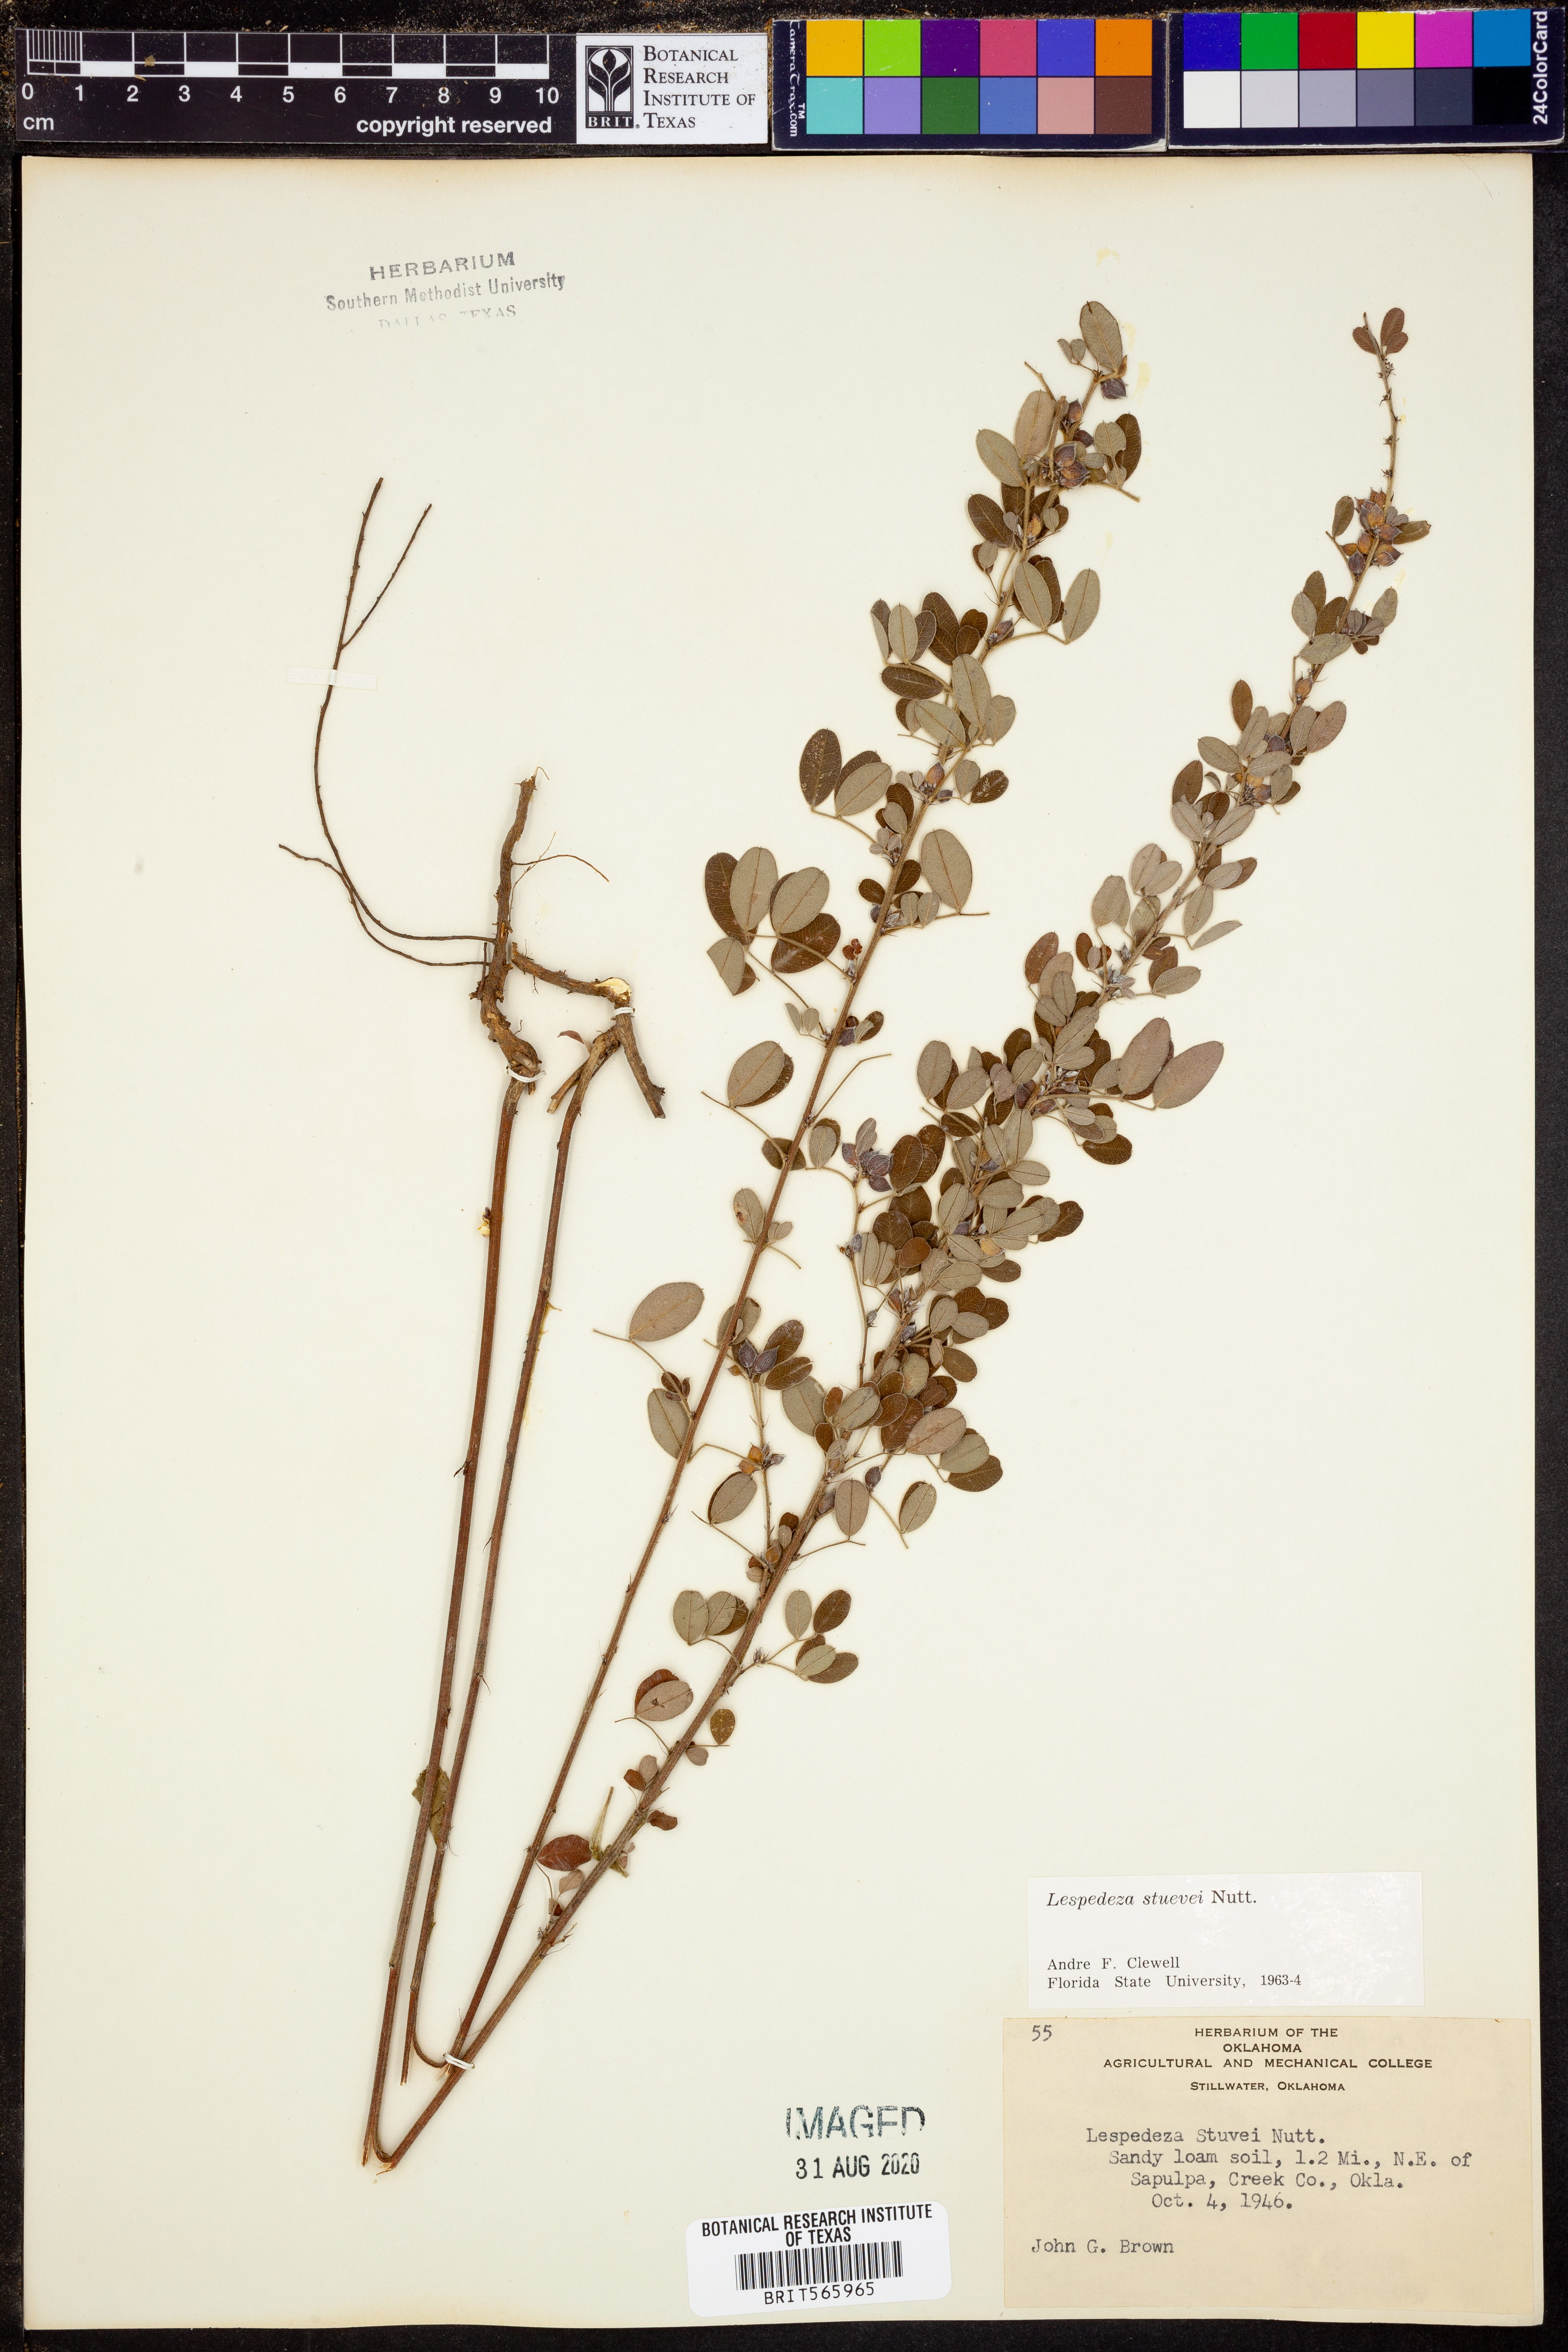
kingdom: Plantae
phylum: Tracheophyta
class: Magnoliopsida
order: Fabales
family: Fabaceae
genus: Lespedeza
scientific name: Lespedeza stuevei
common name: Tall bush-clover
